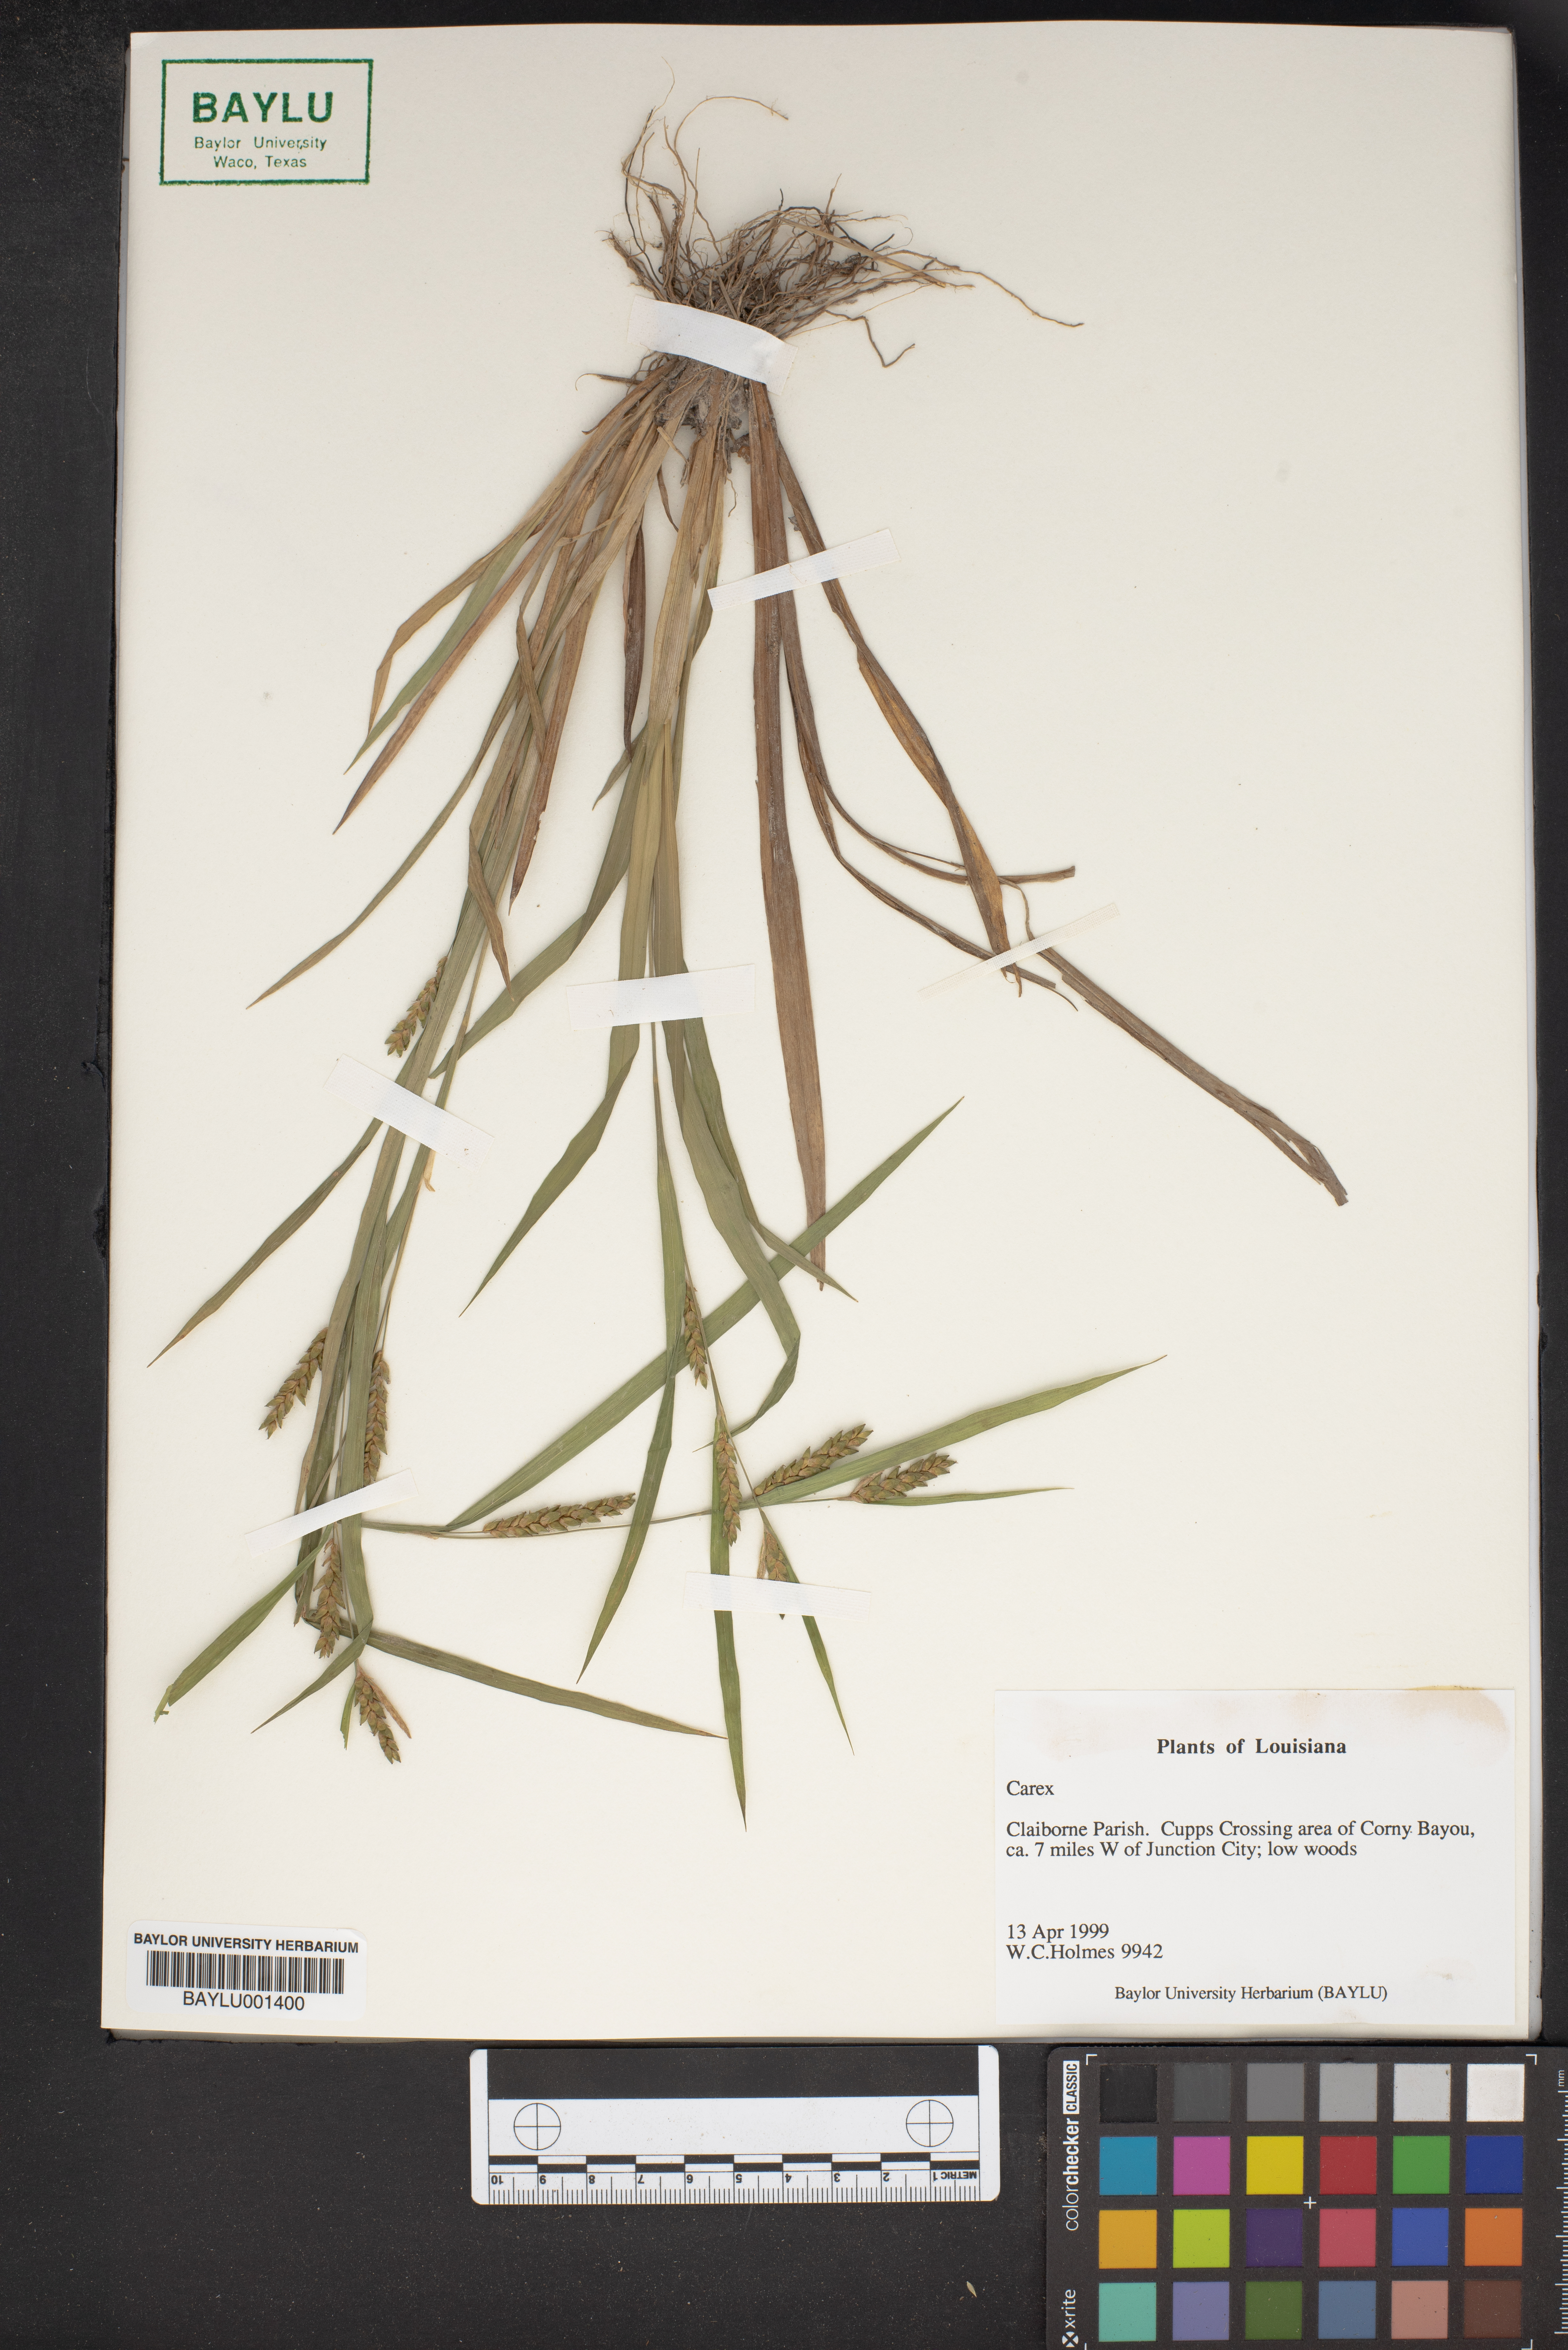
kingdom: Plantae
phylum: Tracheophyta
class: Liliopsida
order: Poales
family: Cyperaceae
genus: Carex
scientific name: Carex
